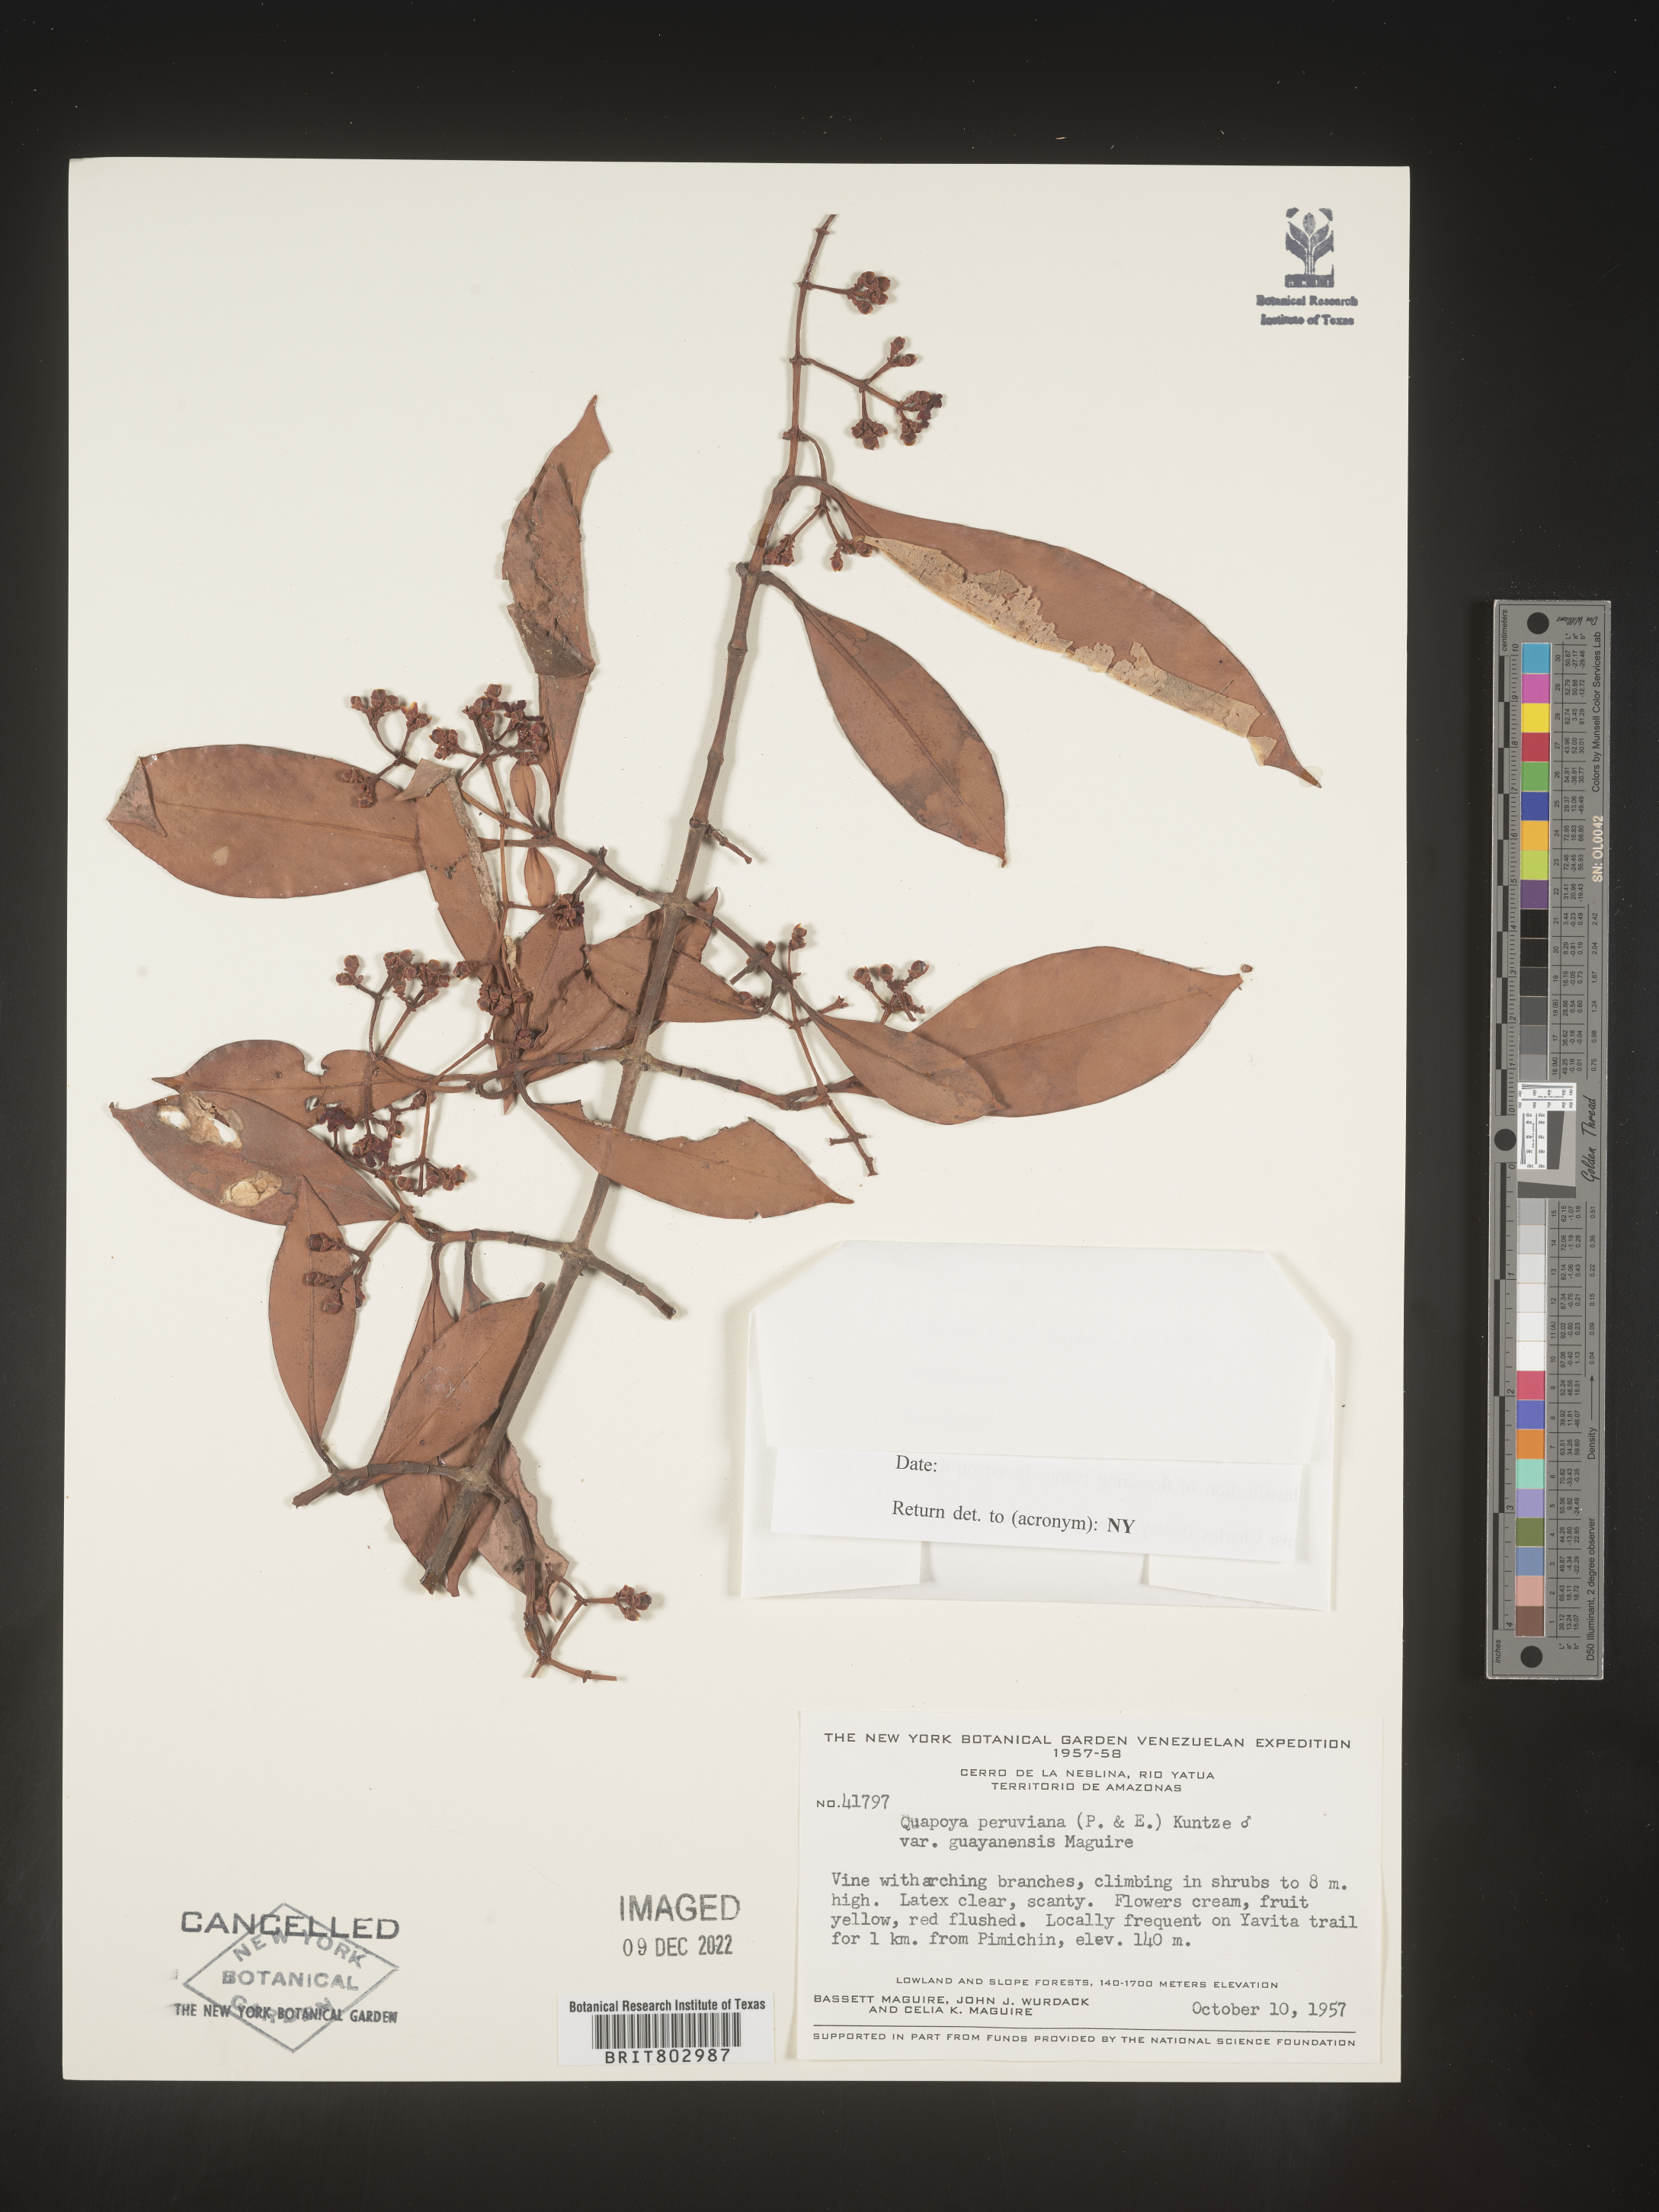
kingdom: Plantae
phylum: Tracheophyta
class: Magnoliopsida
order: Malpighiales
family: Clusiaceae
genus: Quapoya
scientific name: Quapoya
